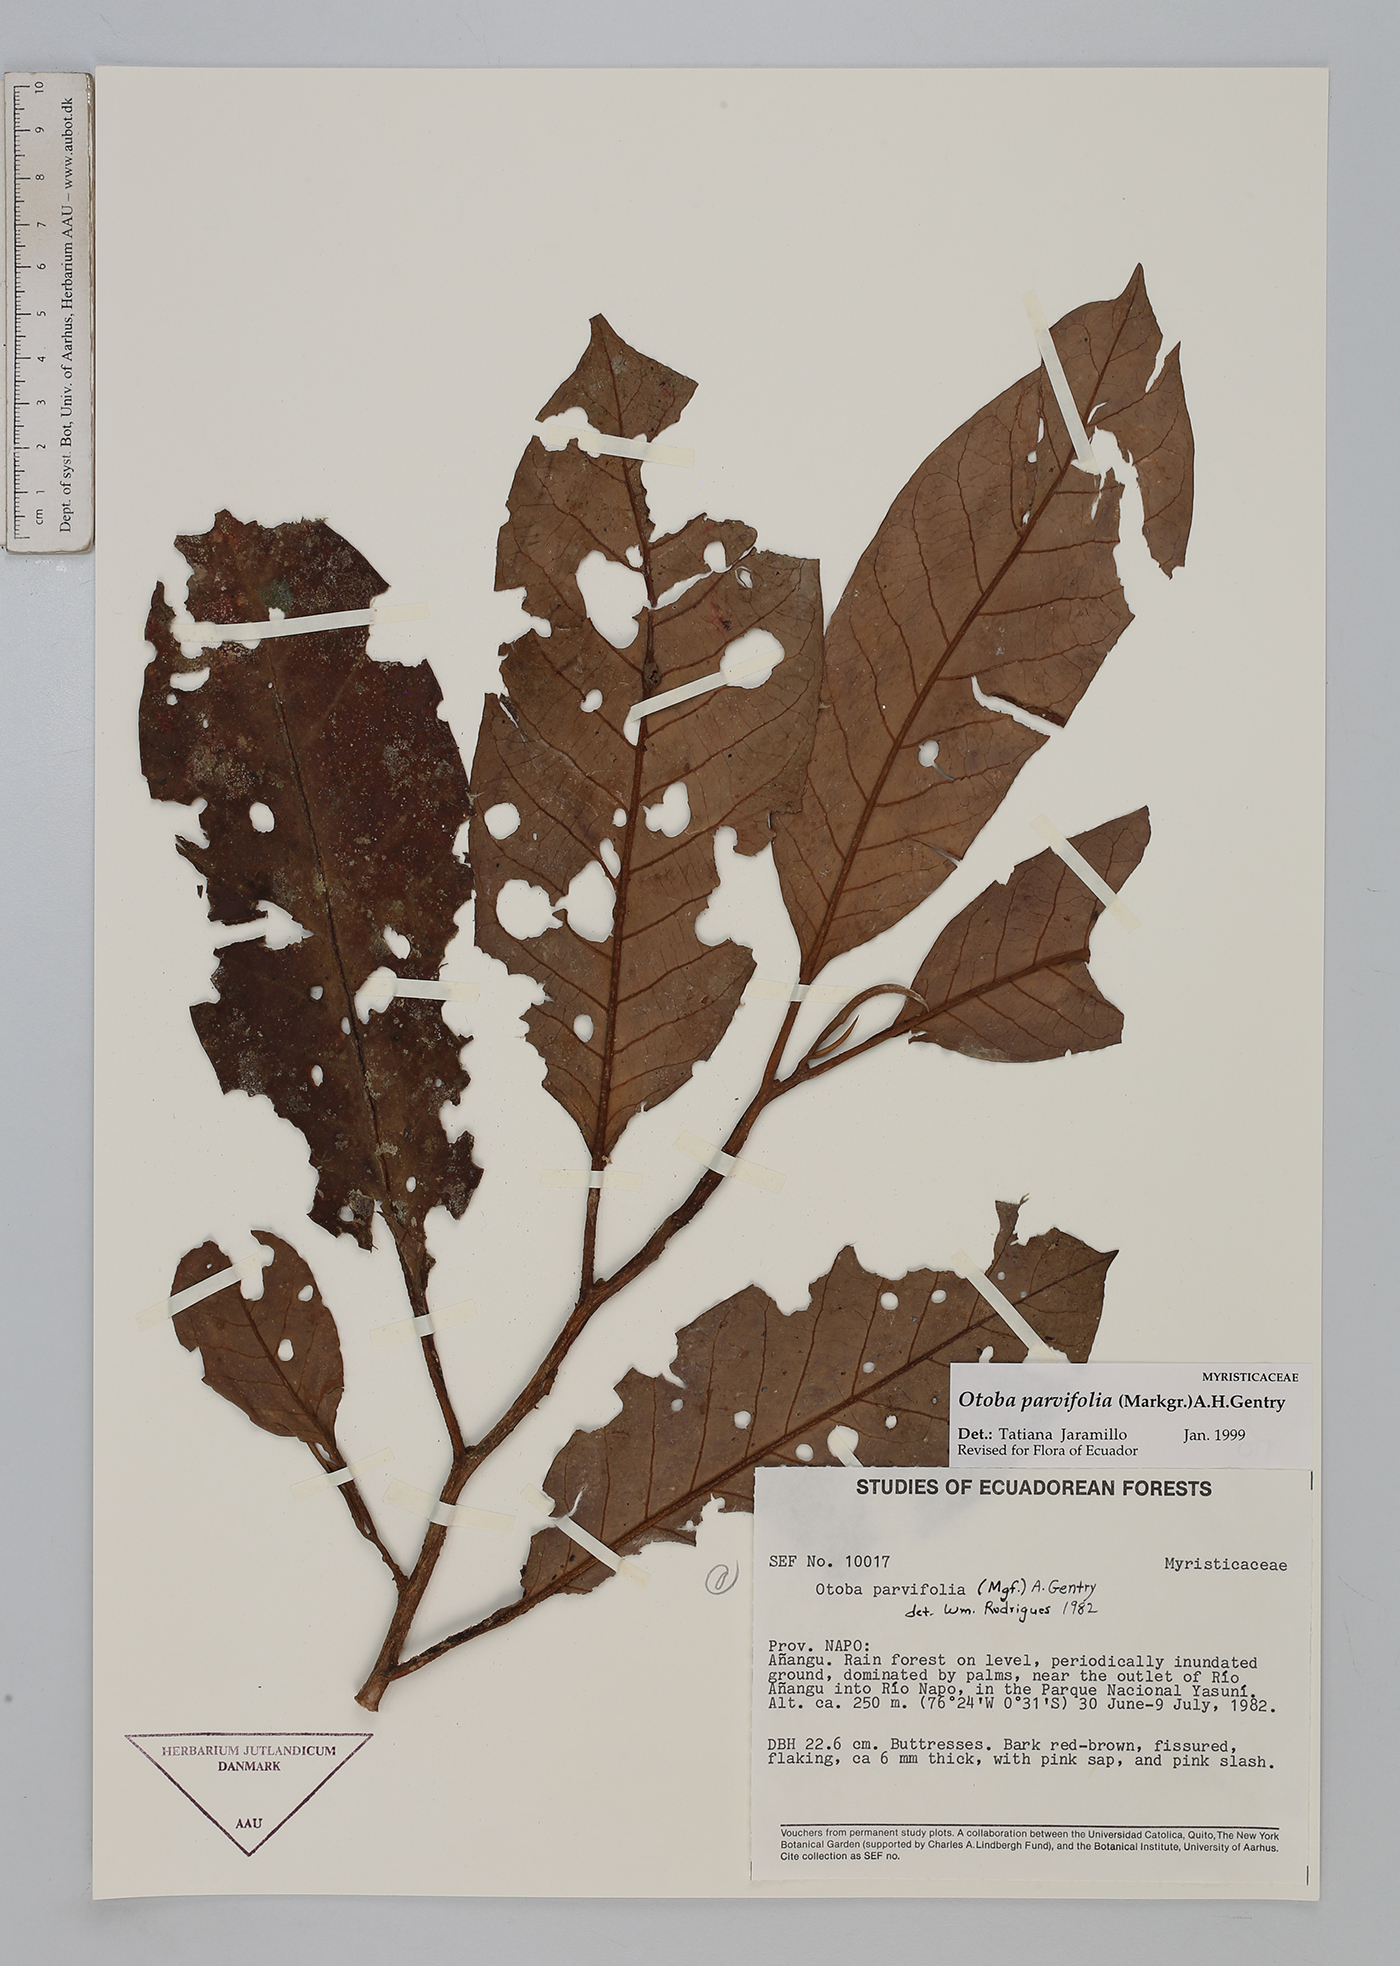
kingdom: Plantae
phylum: Tracheophyta
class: Magnoliopsida
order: Magnoliales
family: Myristicaceae
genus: Otoba
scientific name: Otoba parvifolia
